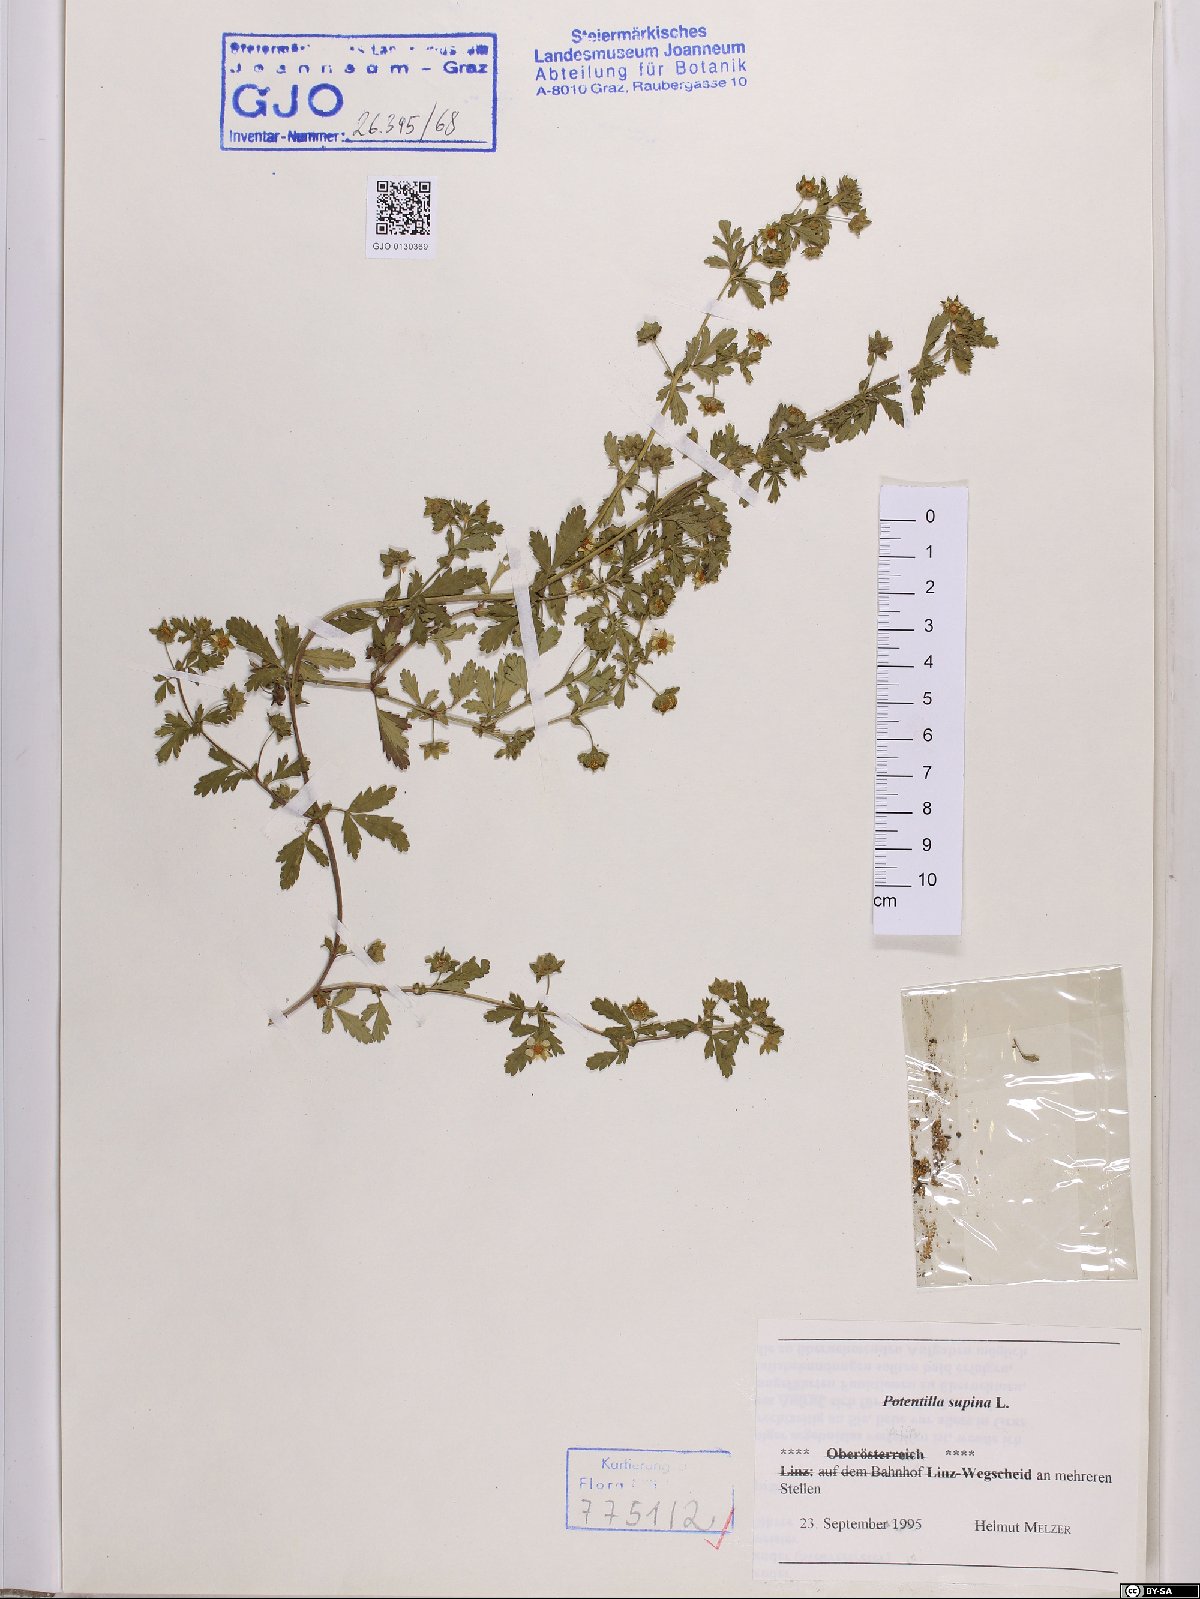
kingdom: Plantae
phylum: Tracheophyta
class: Magnoliopsida
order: Rosales
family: Rosaceae
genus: Potentilla
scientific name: Potentilla supina
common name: Prostrate cinquefoil
